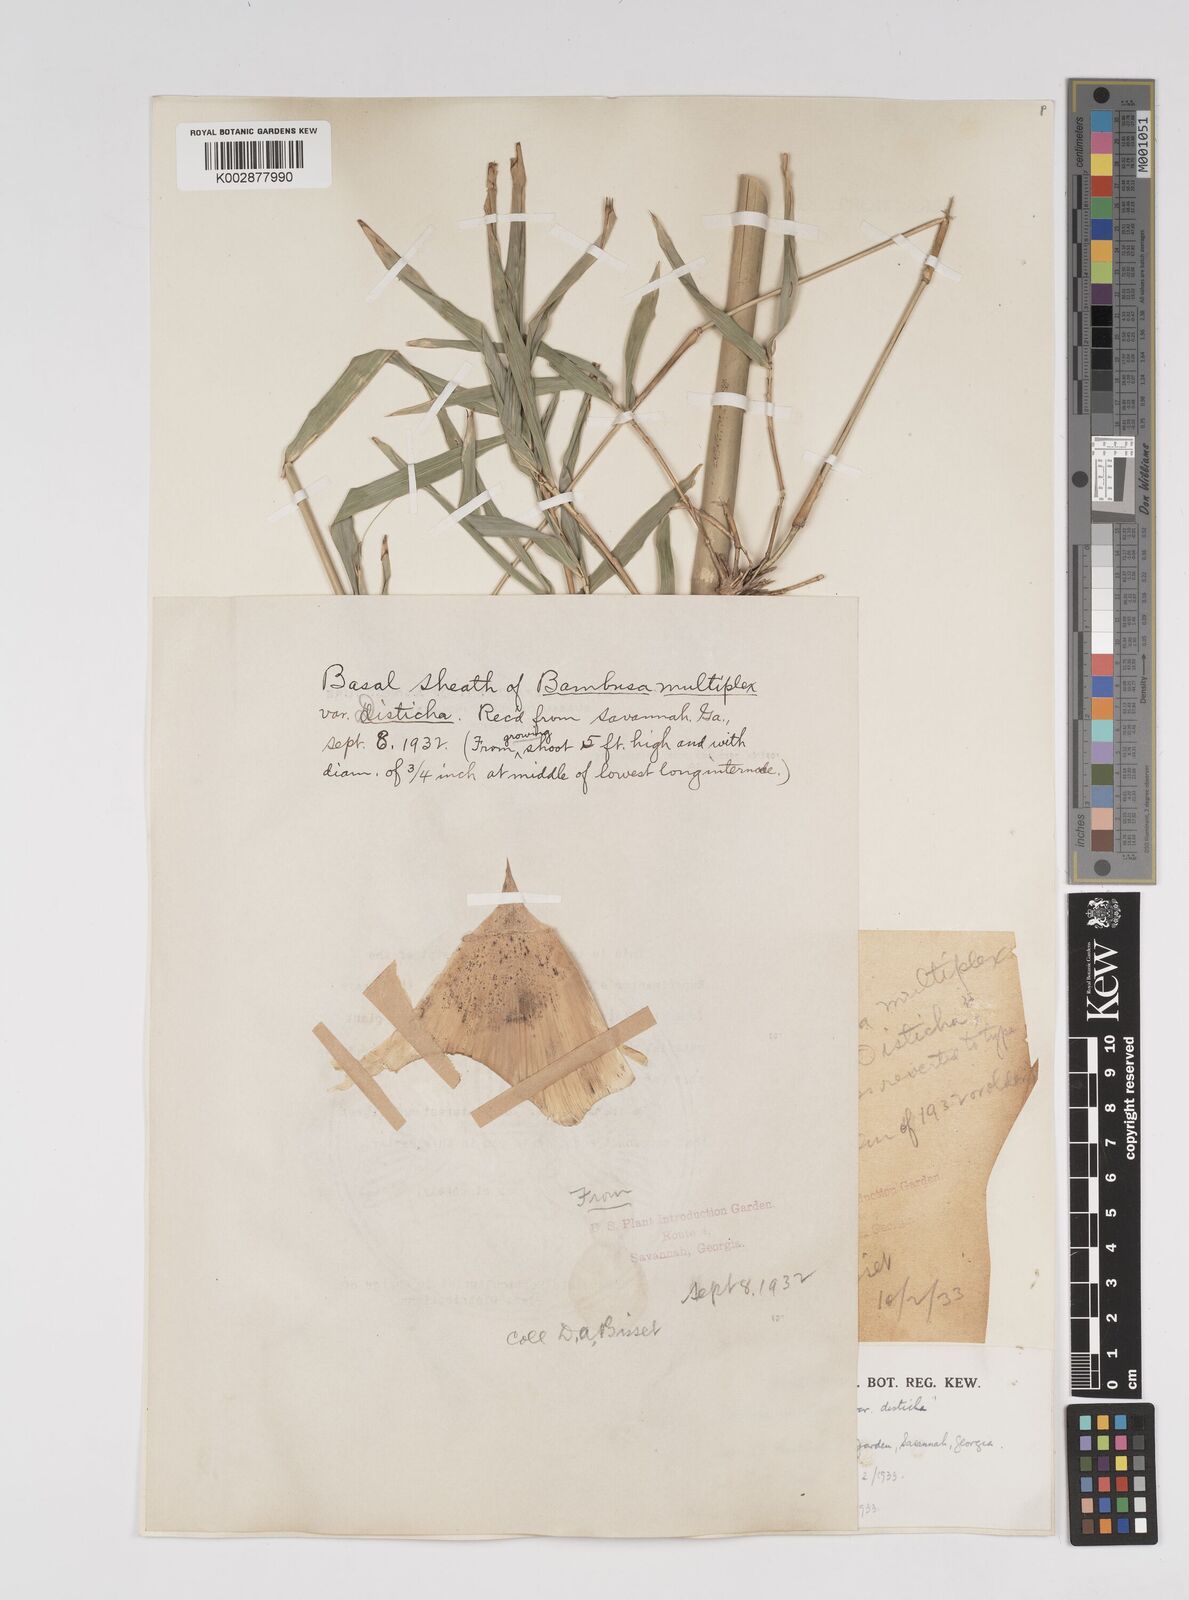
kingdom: Plantae
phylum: Tracheophyta
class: Liliopsida
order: Poales
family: Poaceae
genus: Bambusa
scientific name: Bambusa
